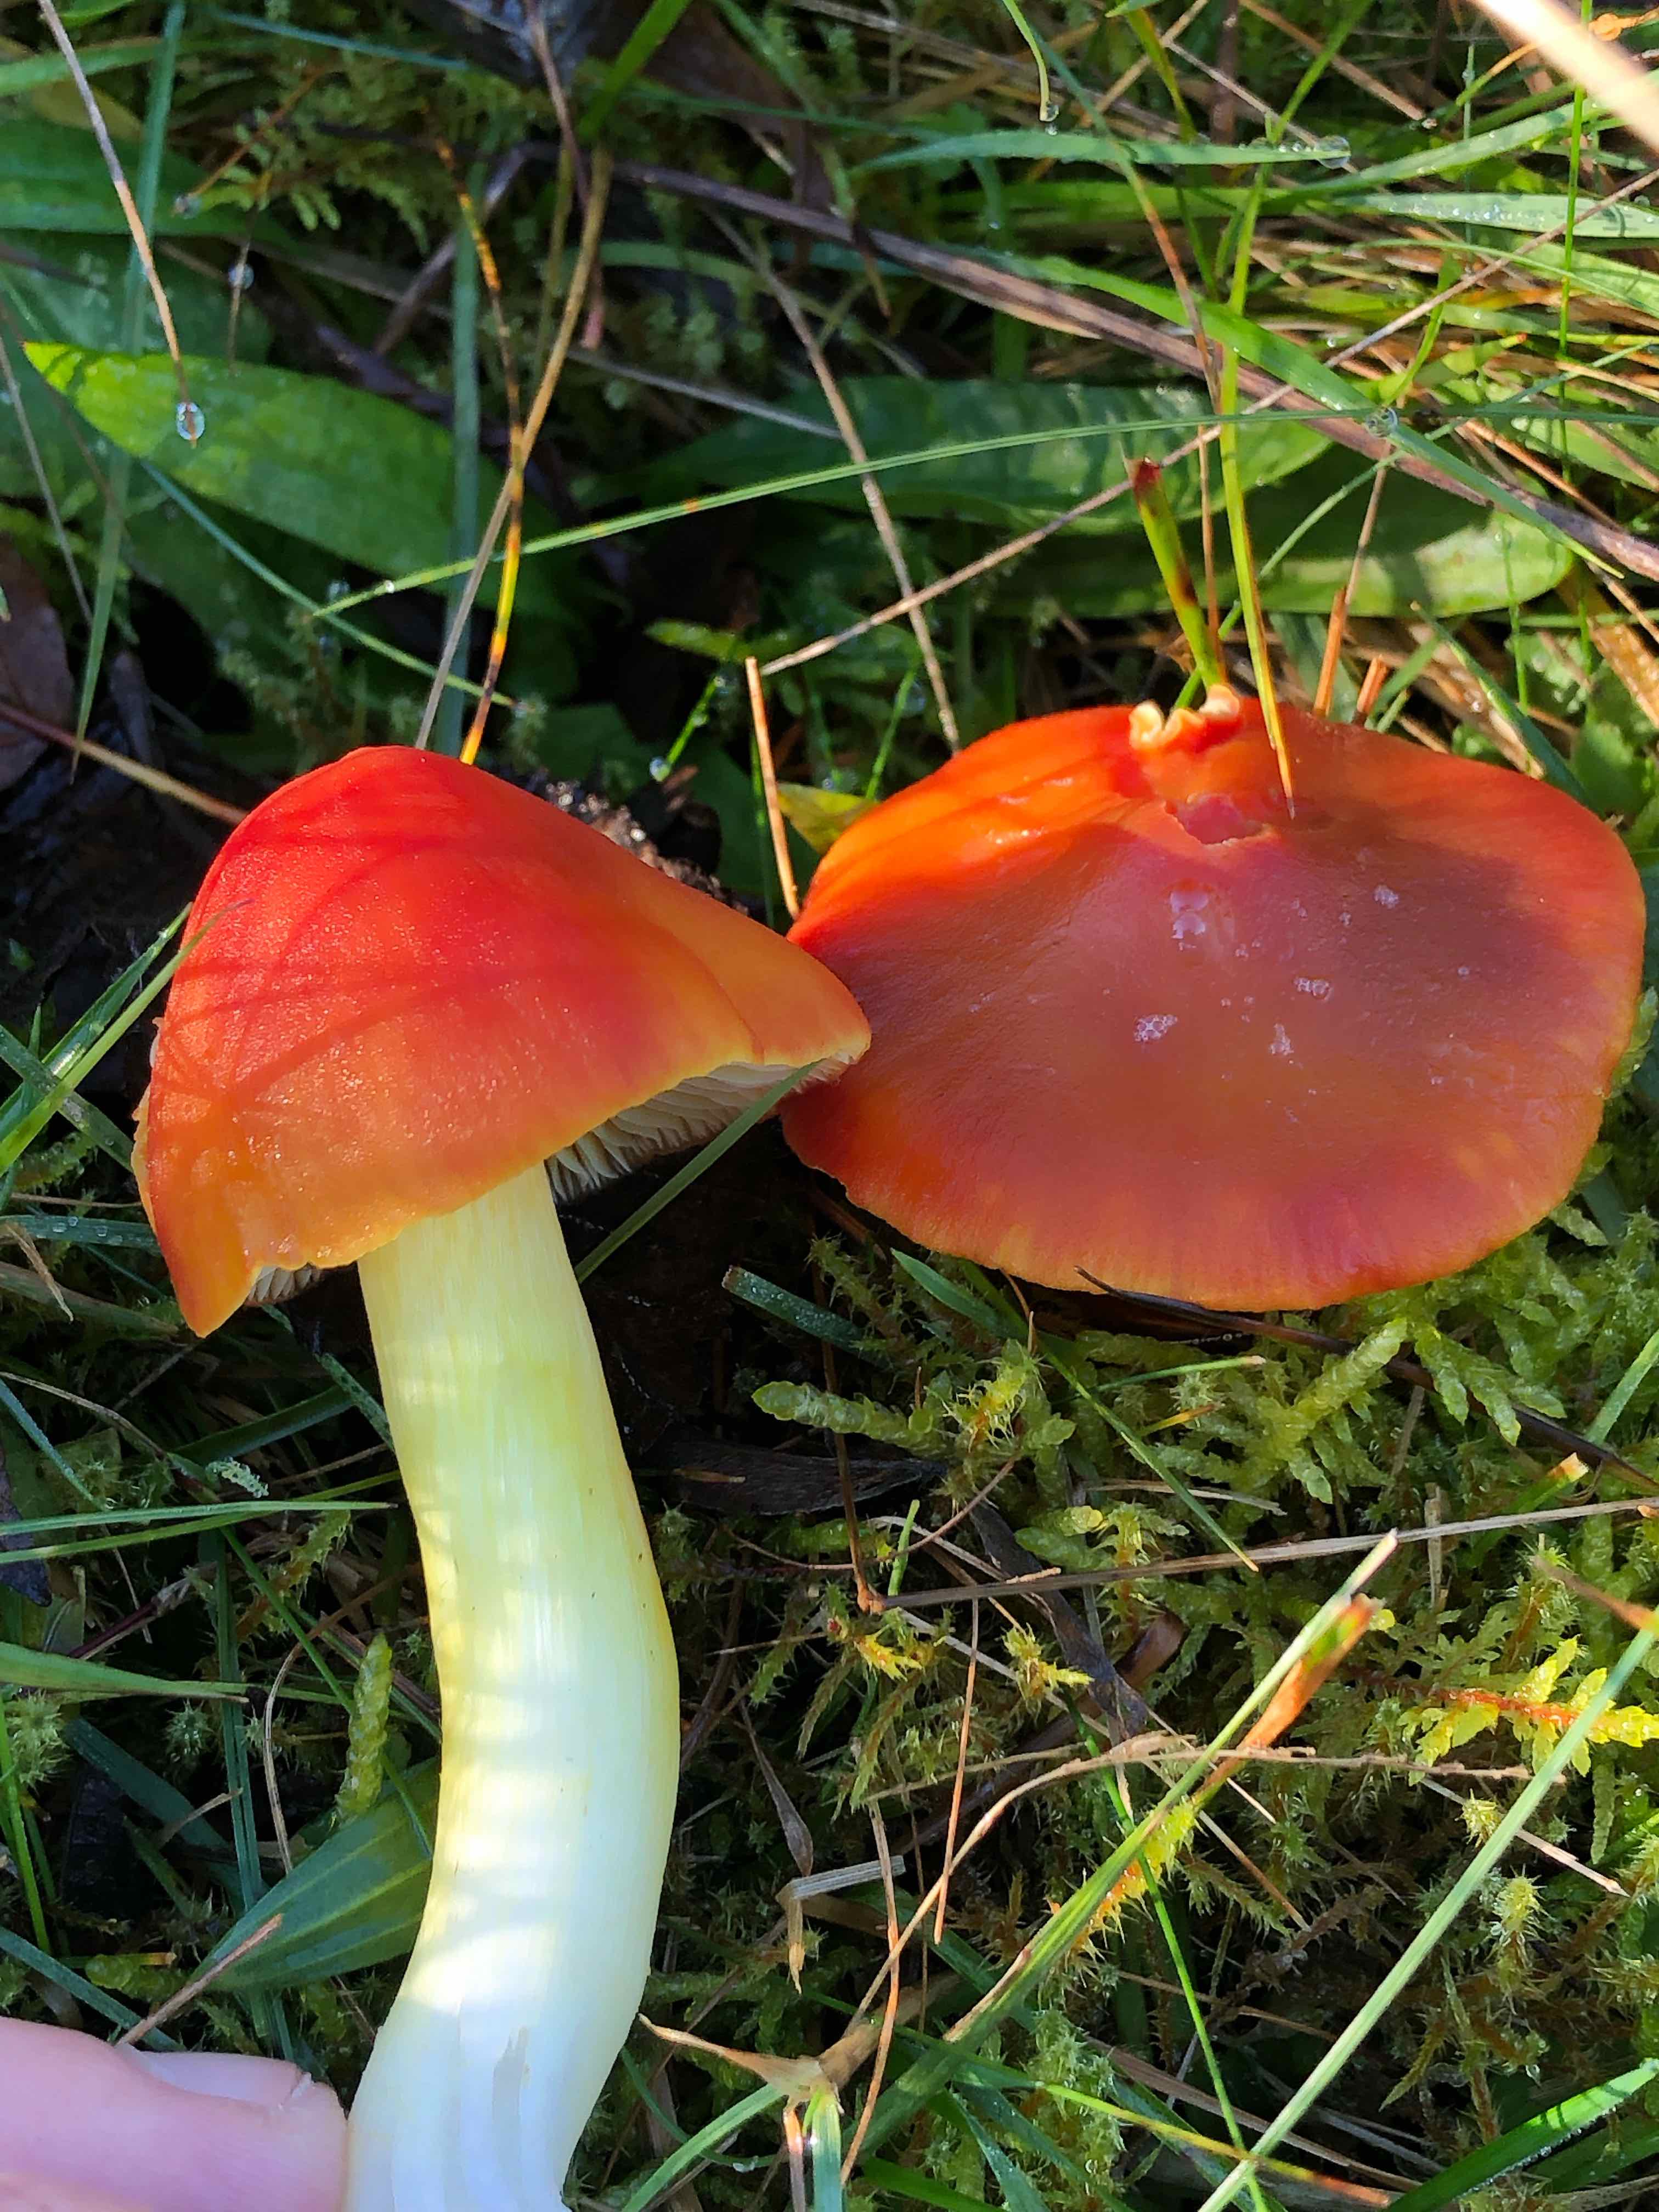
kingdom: Fungi
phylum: Basidiomycota
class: Agaricomycetes
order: Agaricales
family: Hygrophoraceae
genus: Hygrocybe
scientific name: Hygrocybe punicea
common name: skarlagen-vokshat
